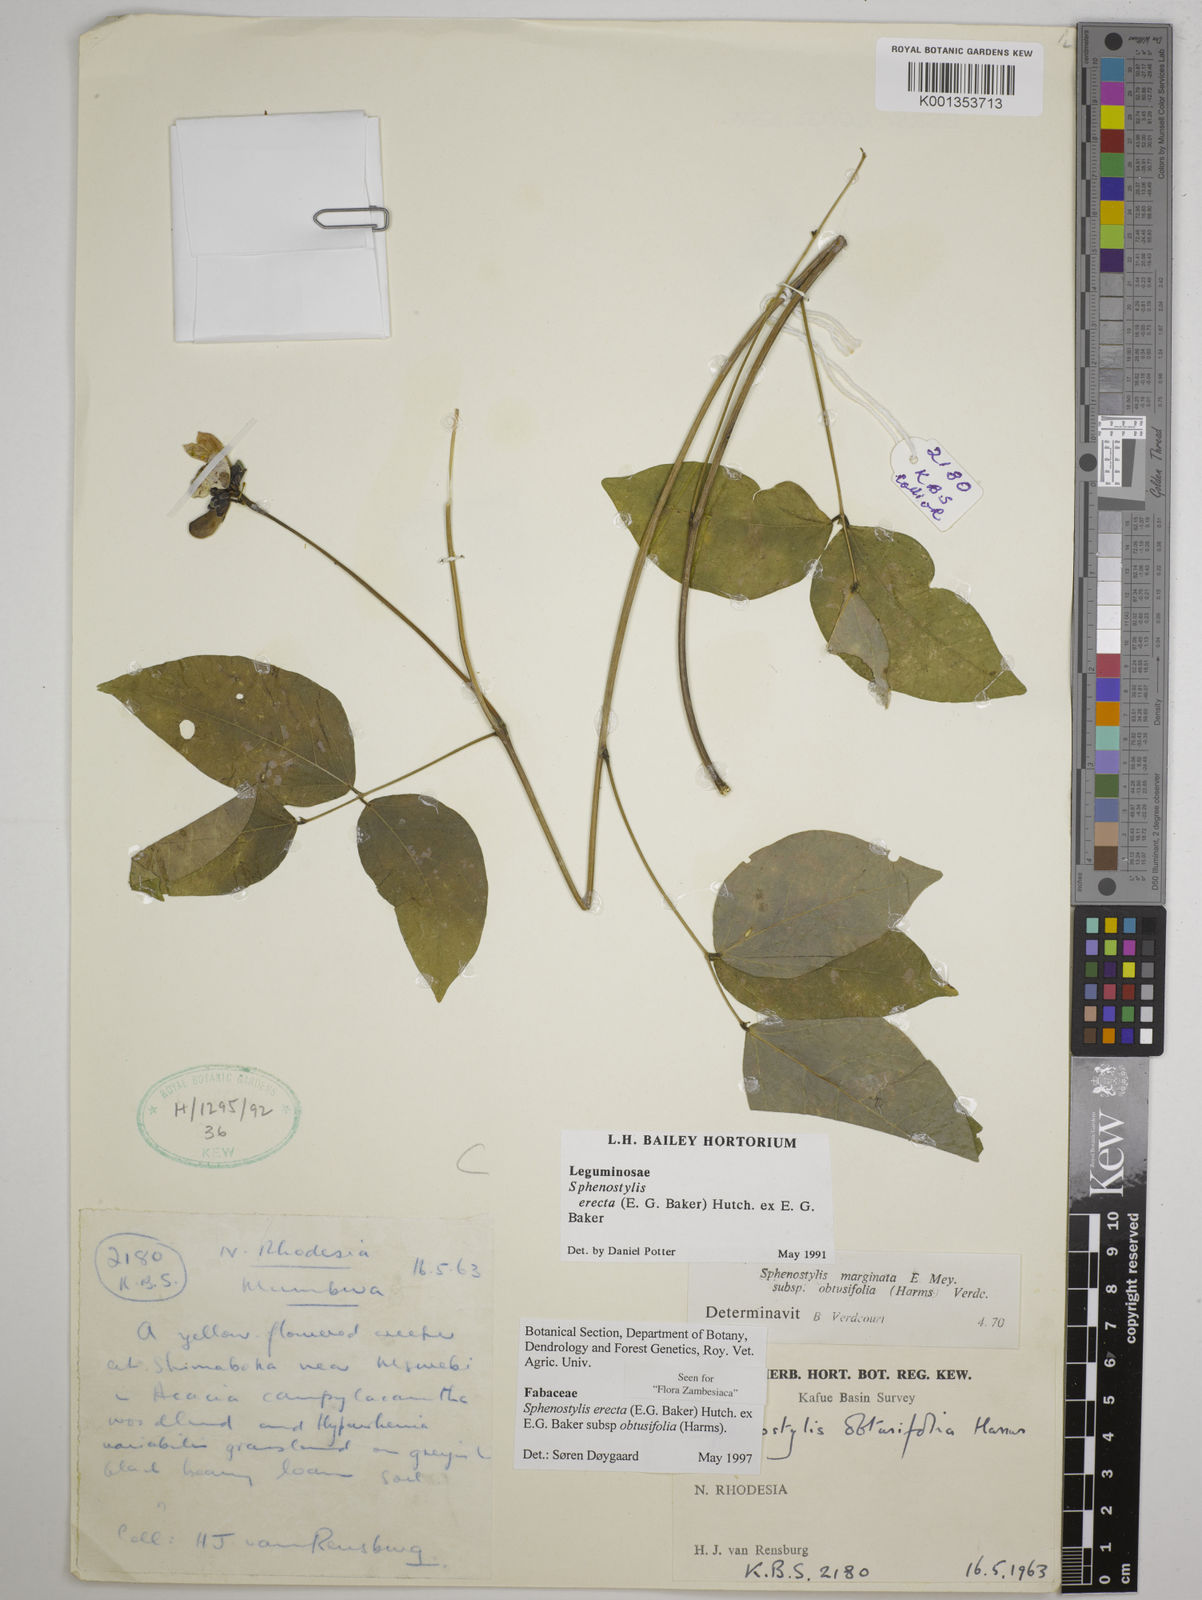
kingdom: Plantae
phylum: Tracheophyta
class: Magnoliopsida
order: Fabales
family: Fabaceae
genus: Sphenostylis
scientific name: Sphenostylis
